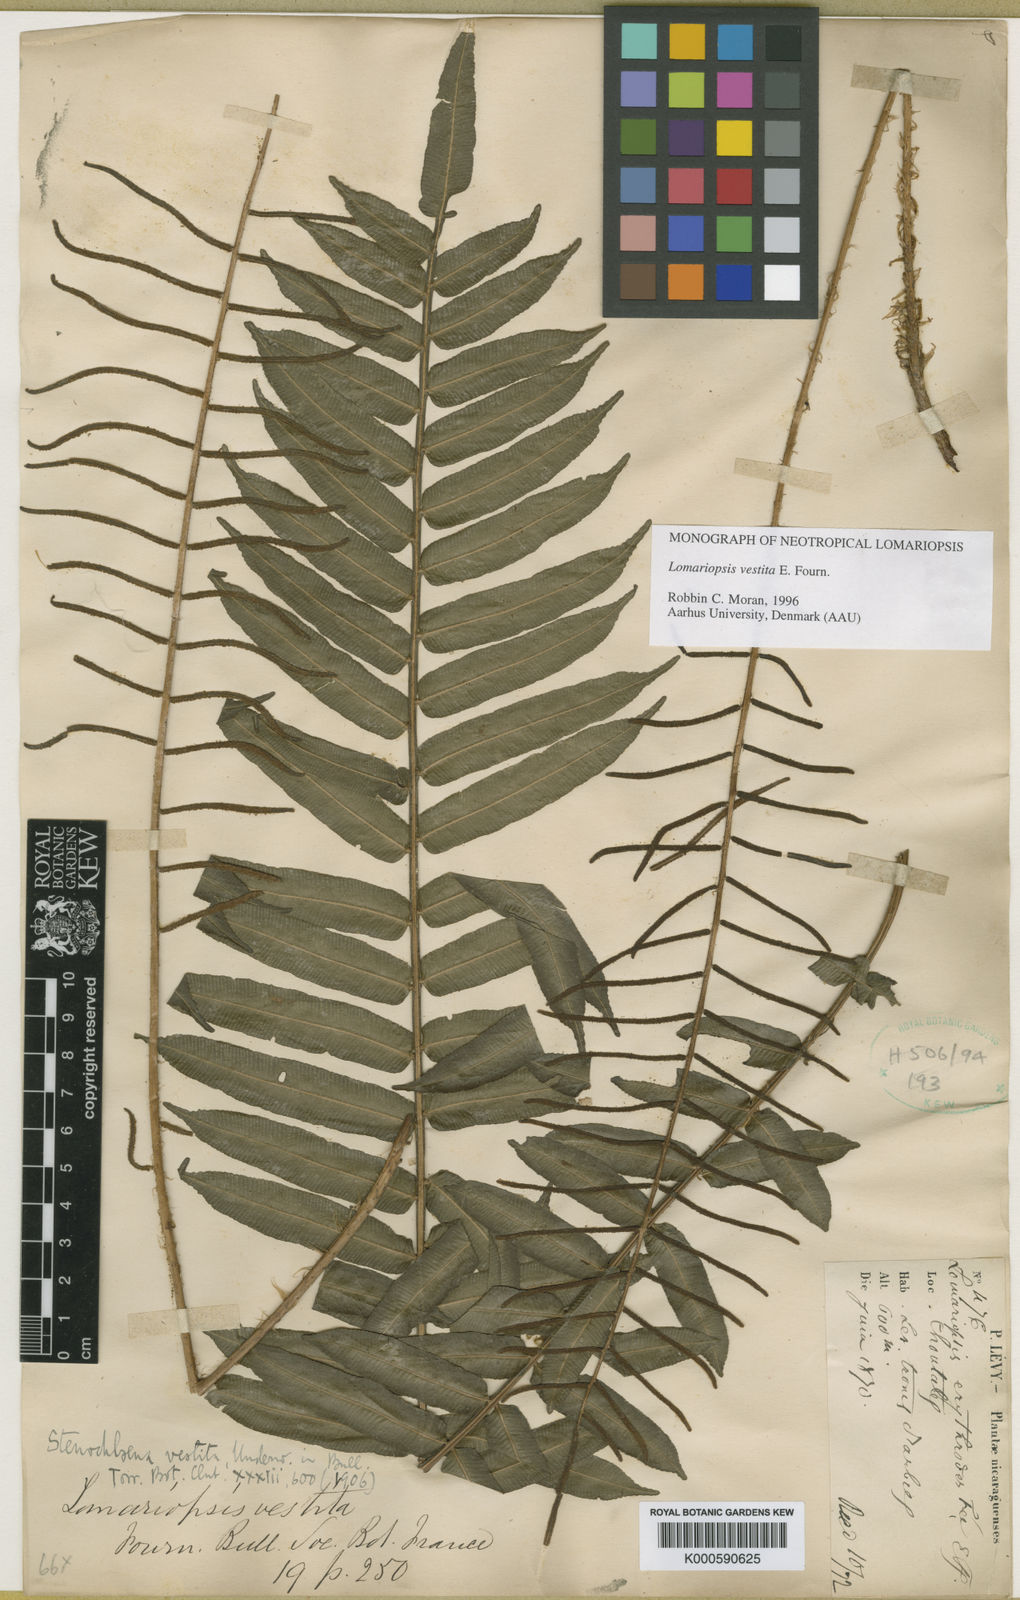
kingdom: Plantae
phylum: Tracheophyta
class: Polypodiopsida
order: Polypodiales
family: Lomariopsidaceae
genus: Lomariopsis
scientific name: Lomariopsis vestita
